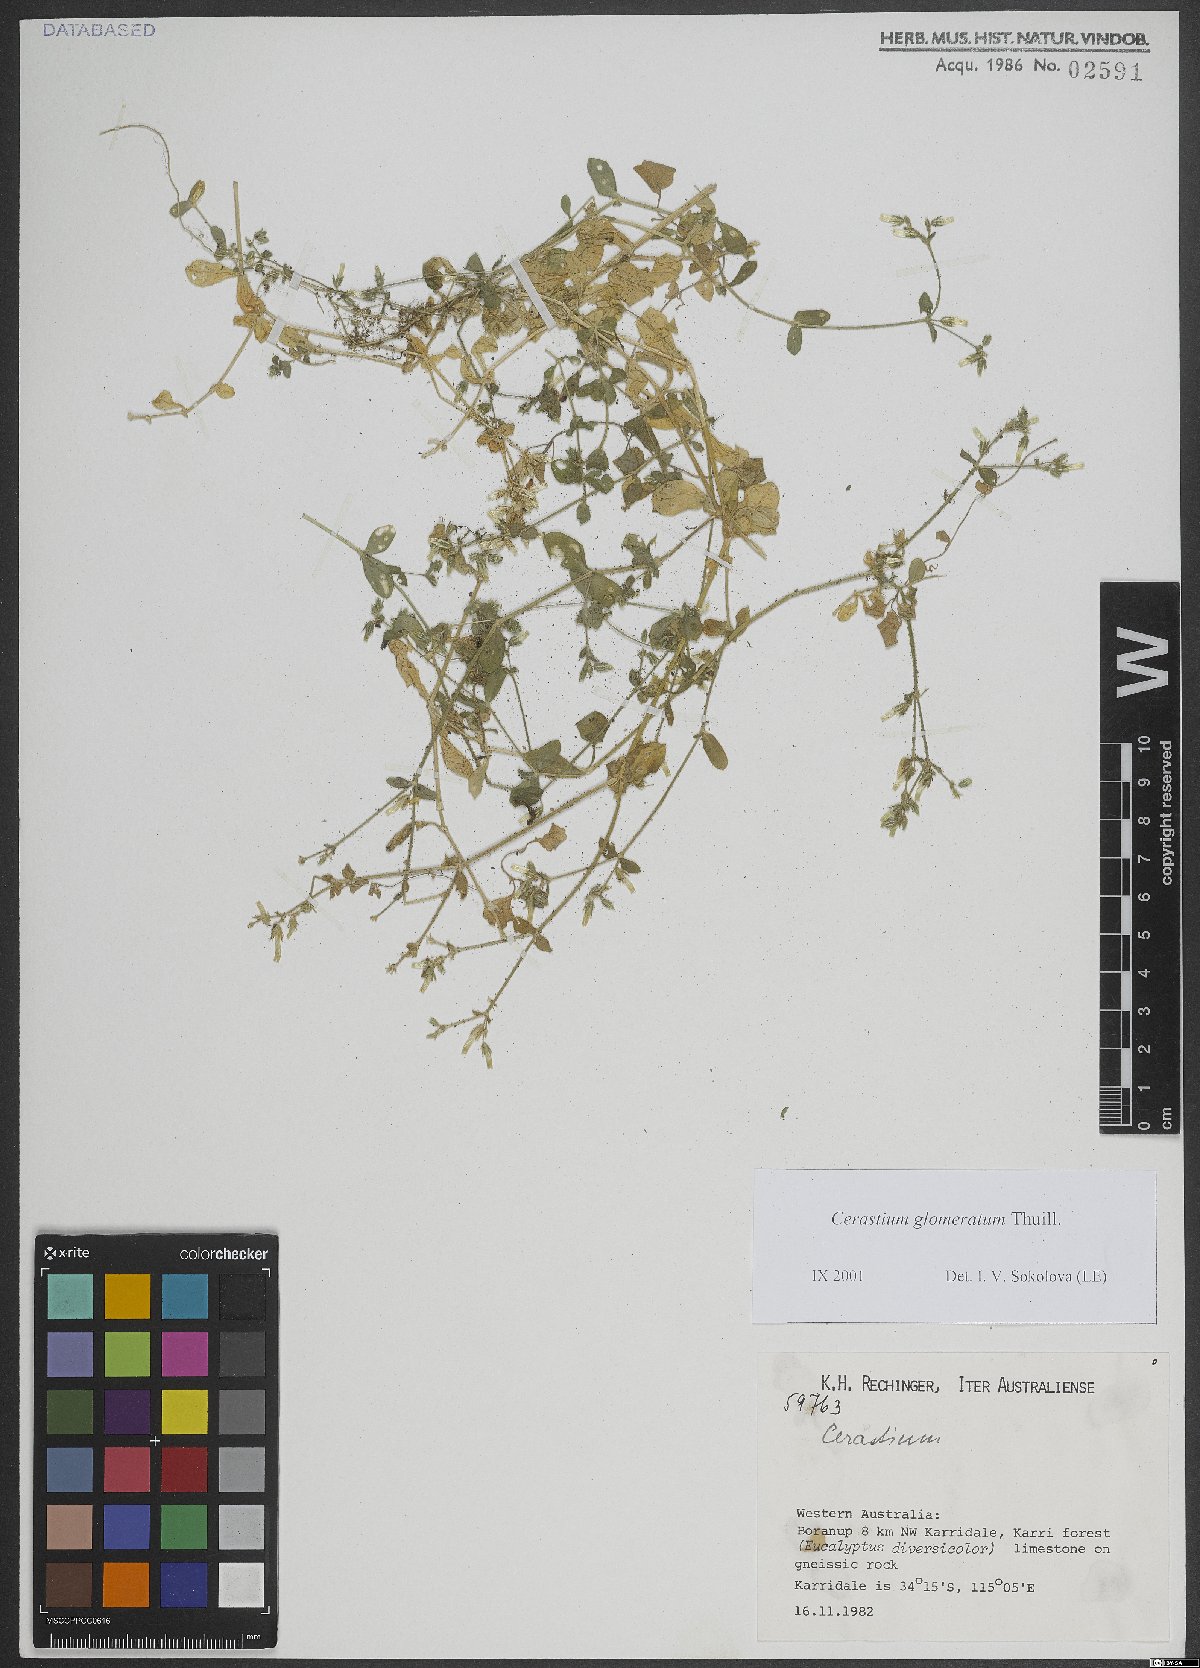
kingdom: Plantae
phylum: Tracheophyta
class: Magnoliopsida
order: Caryophyllales
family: Caryophyllaceae
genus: Cerastium
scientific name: Cerastium glomeratum
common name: Sticky chickweed
